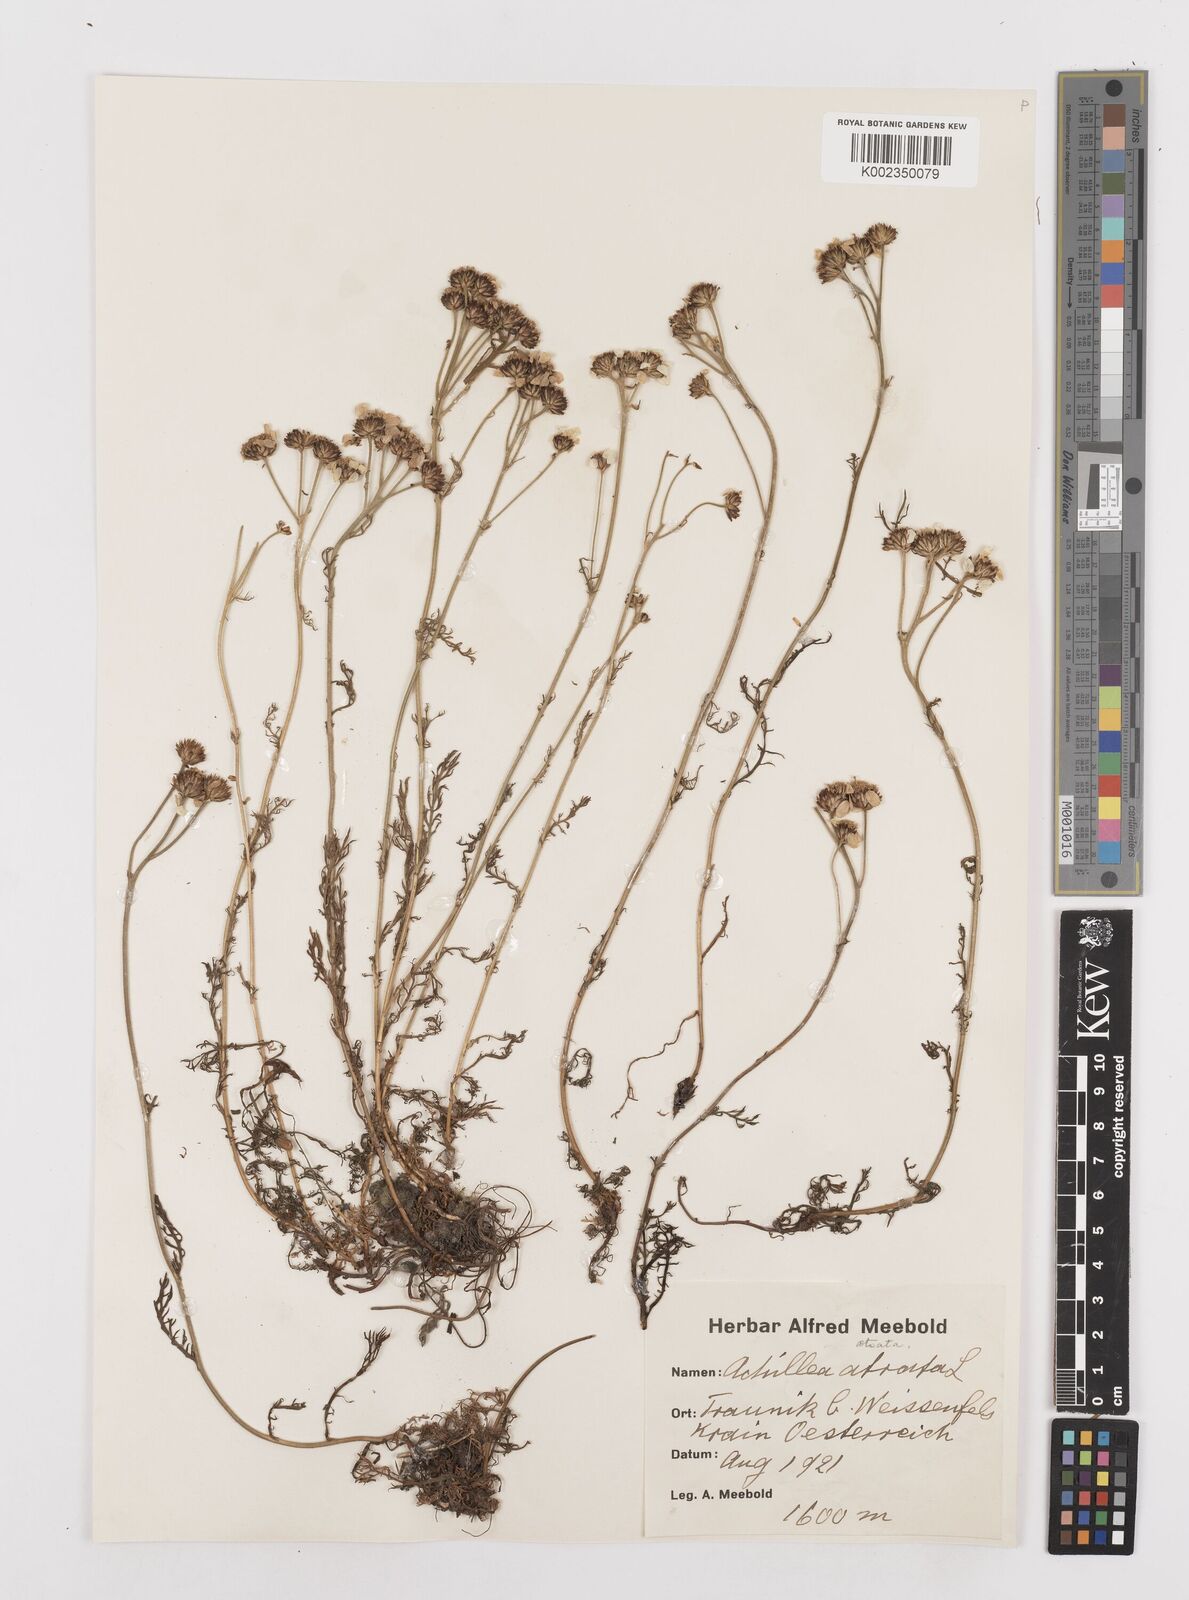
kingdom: Plantae
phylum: Tracheophyta
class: Magnoliopsida
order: Asterales
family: Asteraceae
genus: Achillea
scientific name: Achillea atrata
